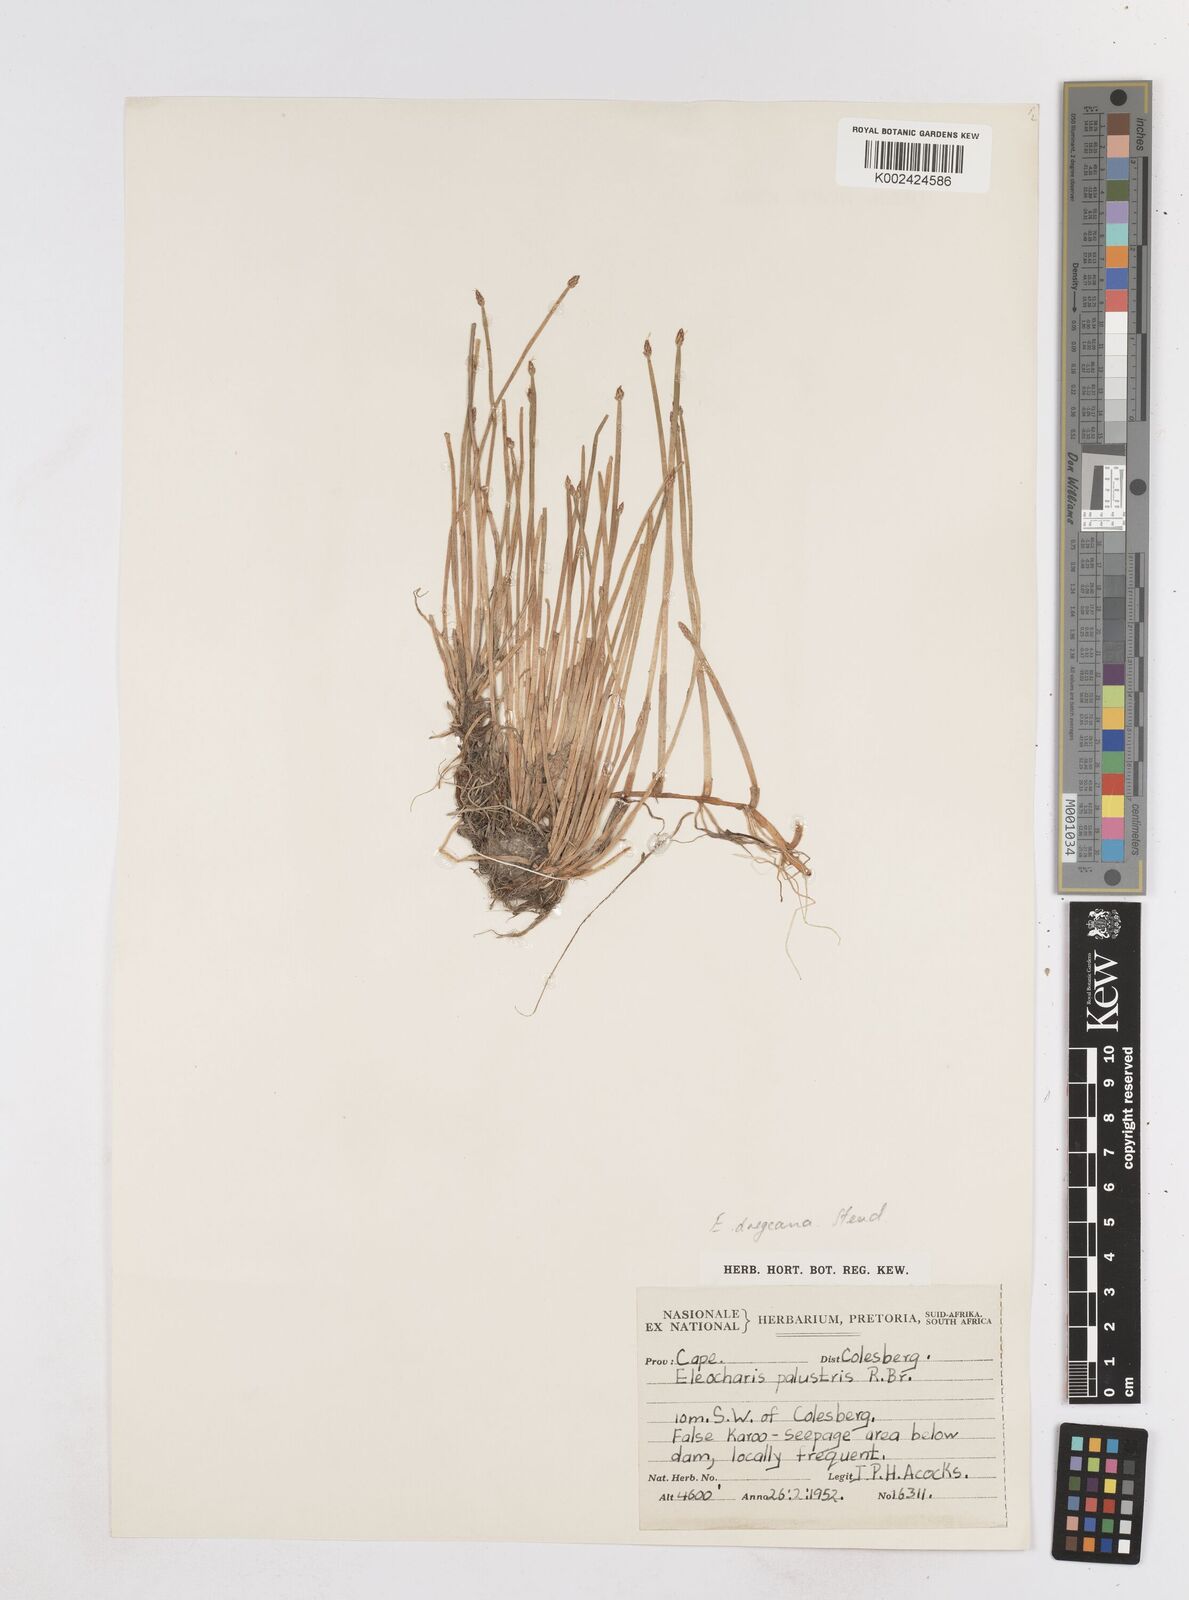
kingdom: Plantae
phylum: Tracheophyta
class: Liliopsida
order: Poales
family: Cyperaceae
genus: Eleocharis
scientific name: Eleocharis dregeana
